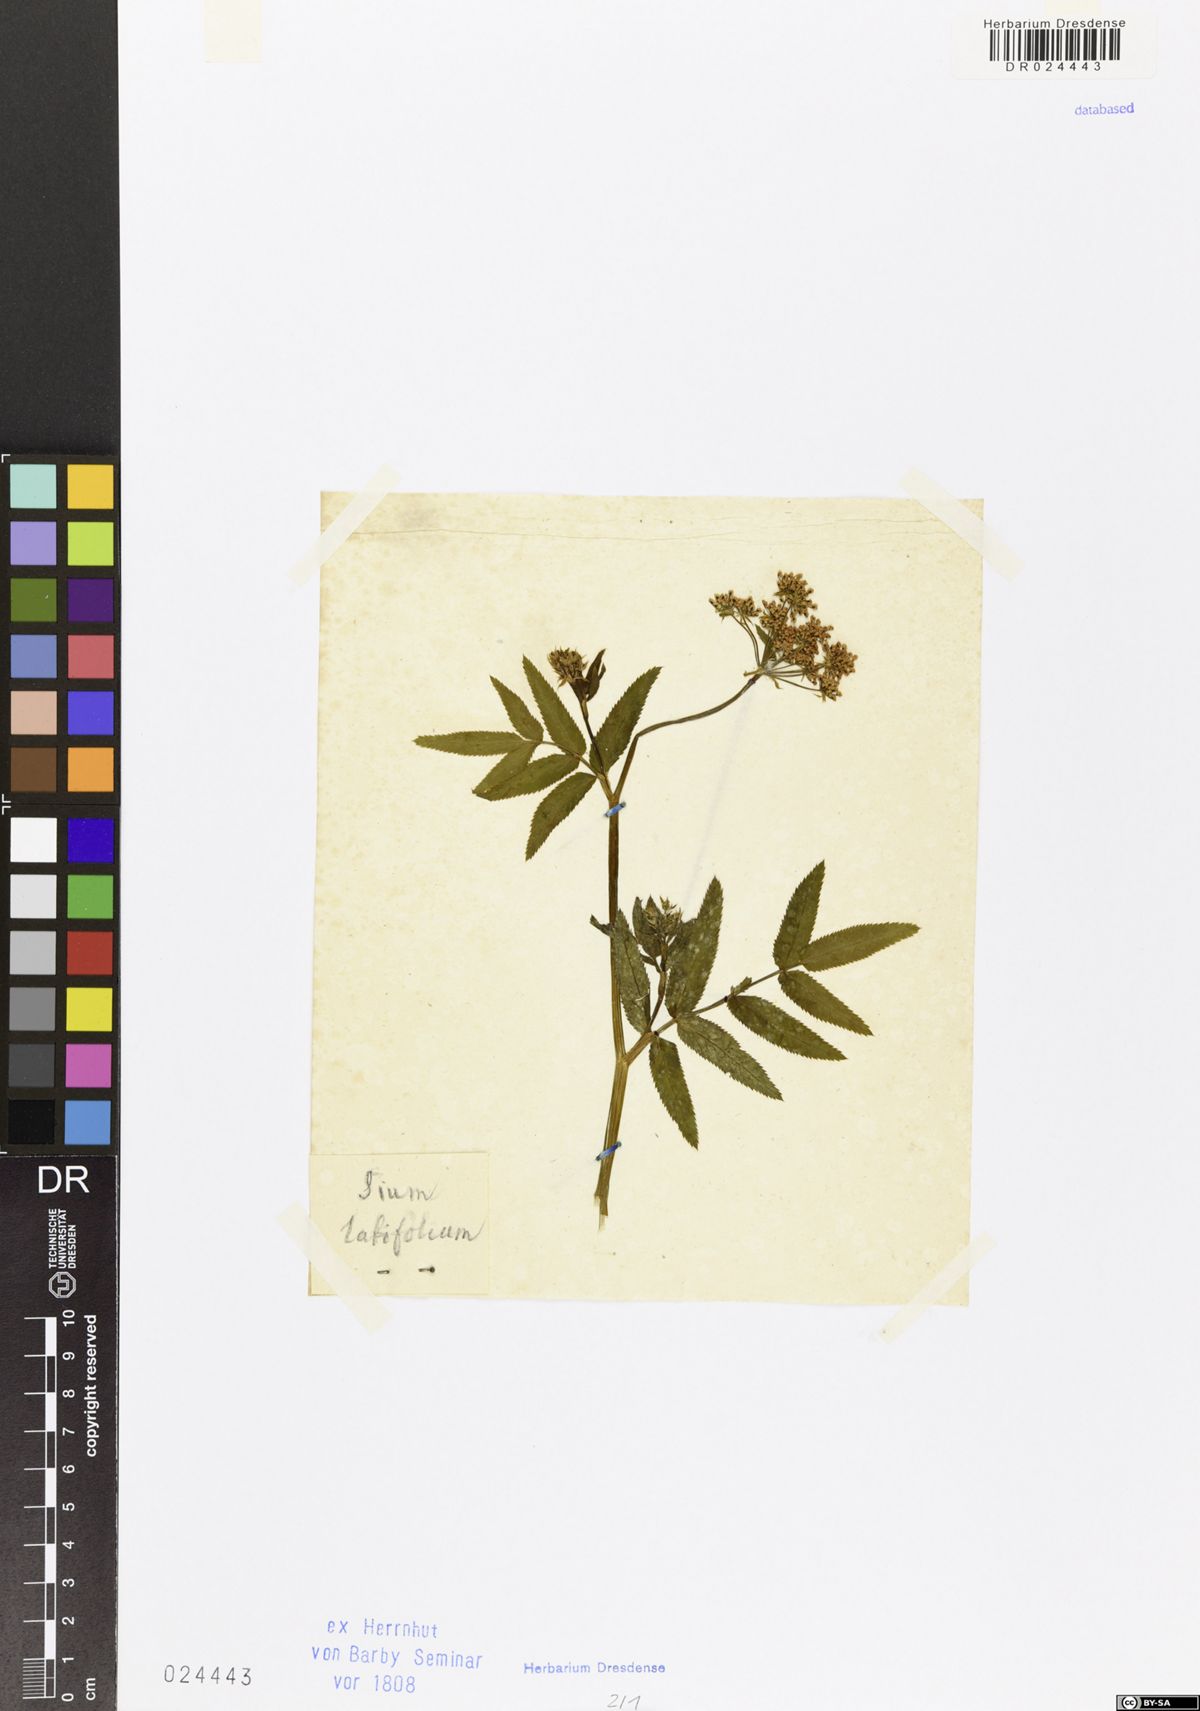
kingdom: Plantae
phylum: Tracheophyta
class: Magnoliopsida
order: Apiales
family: Apiaceae
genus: Sium
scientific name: Sium latifolium
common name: Greater water-parsnip
